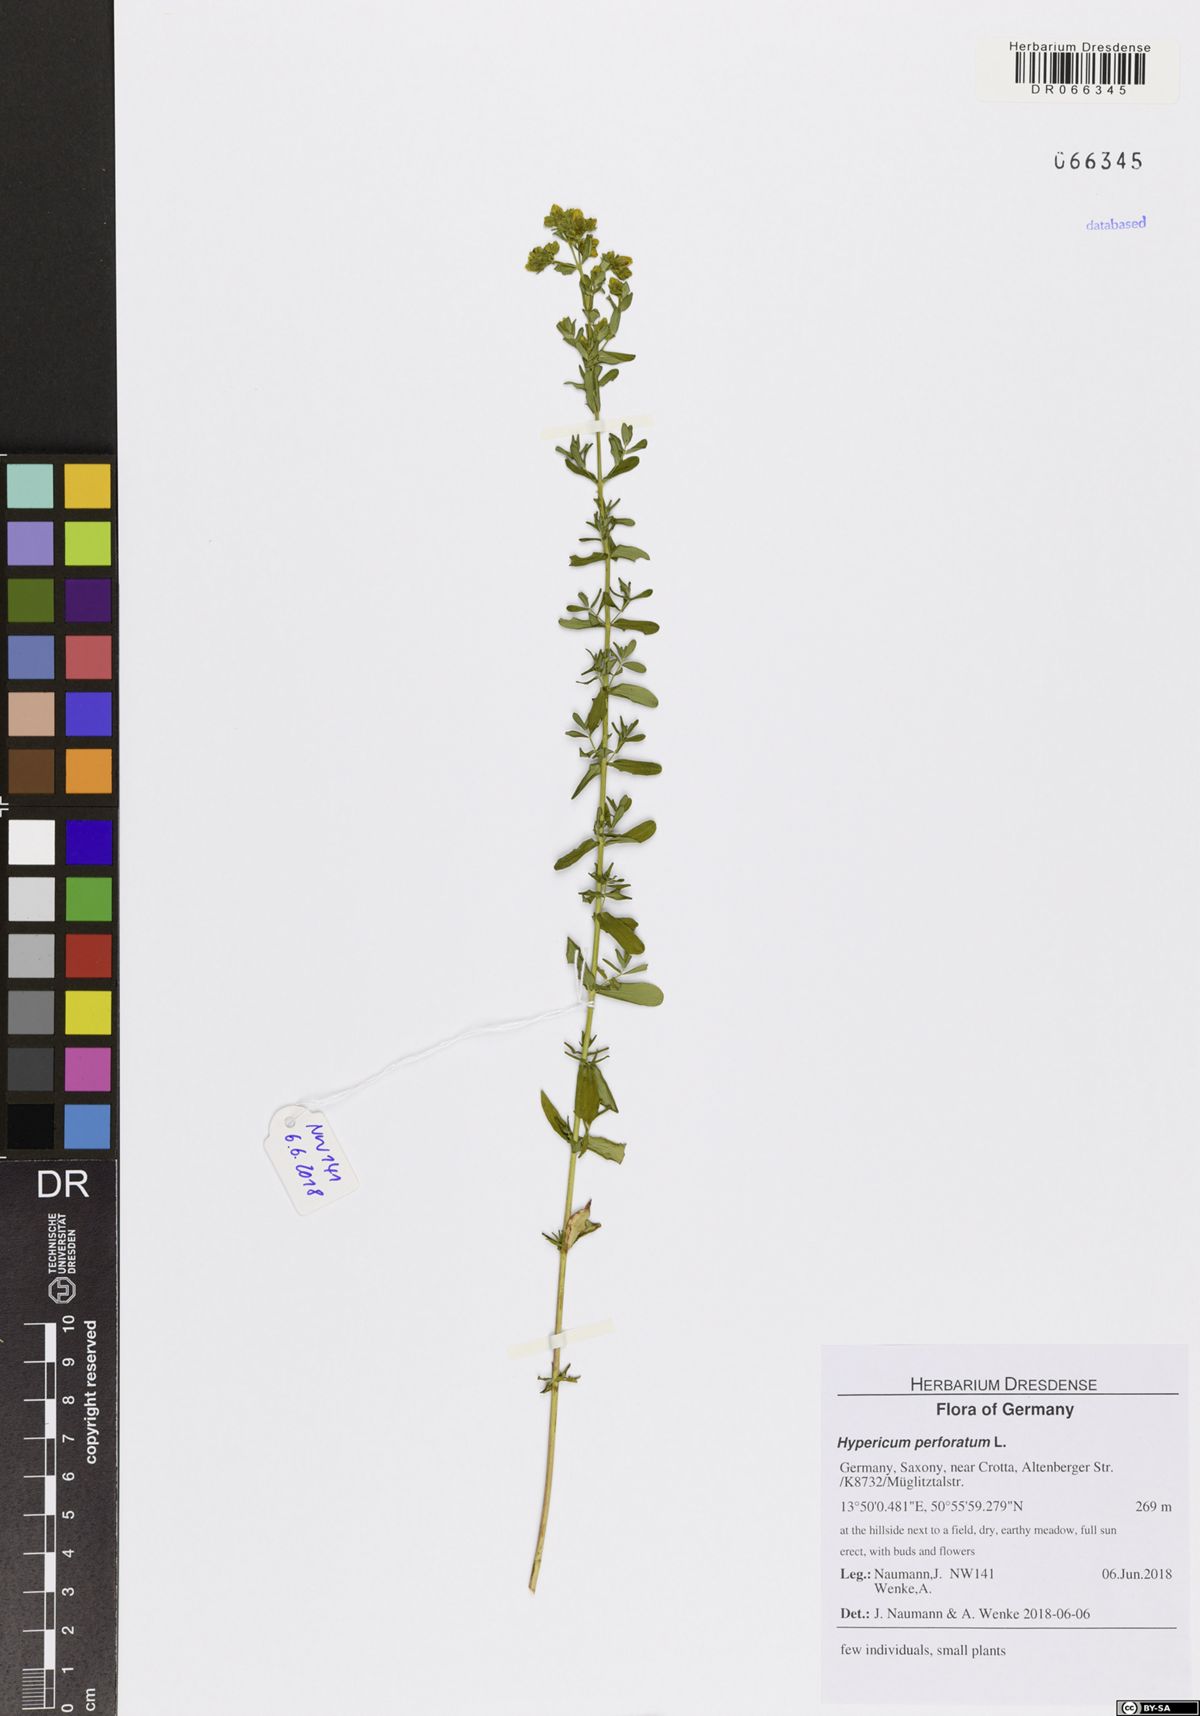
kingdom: Plantae
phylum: Tracheophyta
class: Magnoliopsida
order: Malpighiales
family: Hypericaceae
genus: Hypericum
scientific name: Hypericum perforatum
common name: Common st. johnswort
